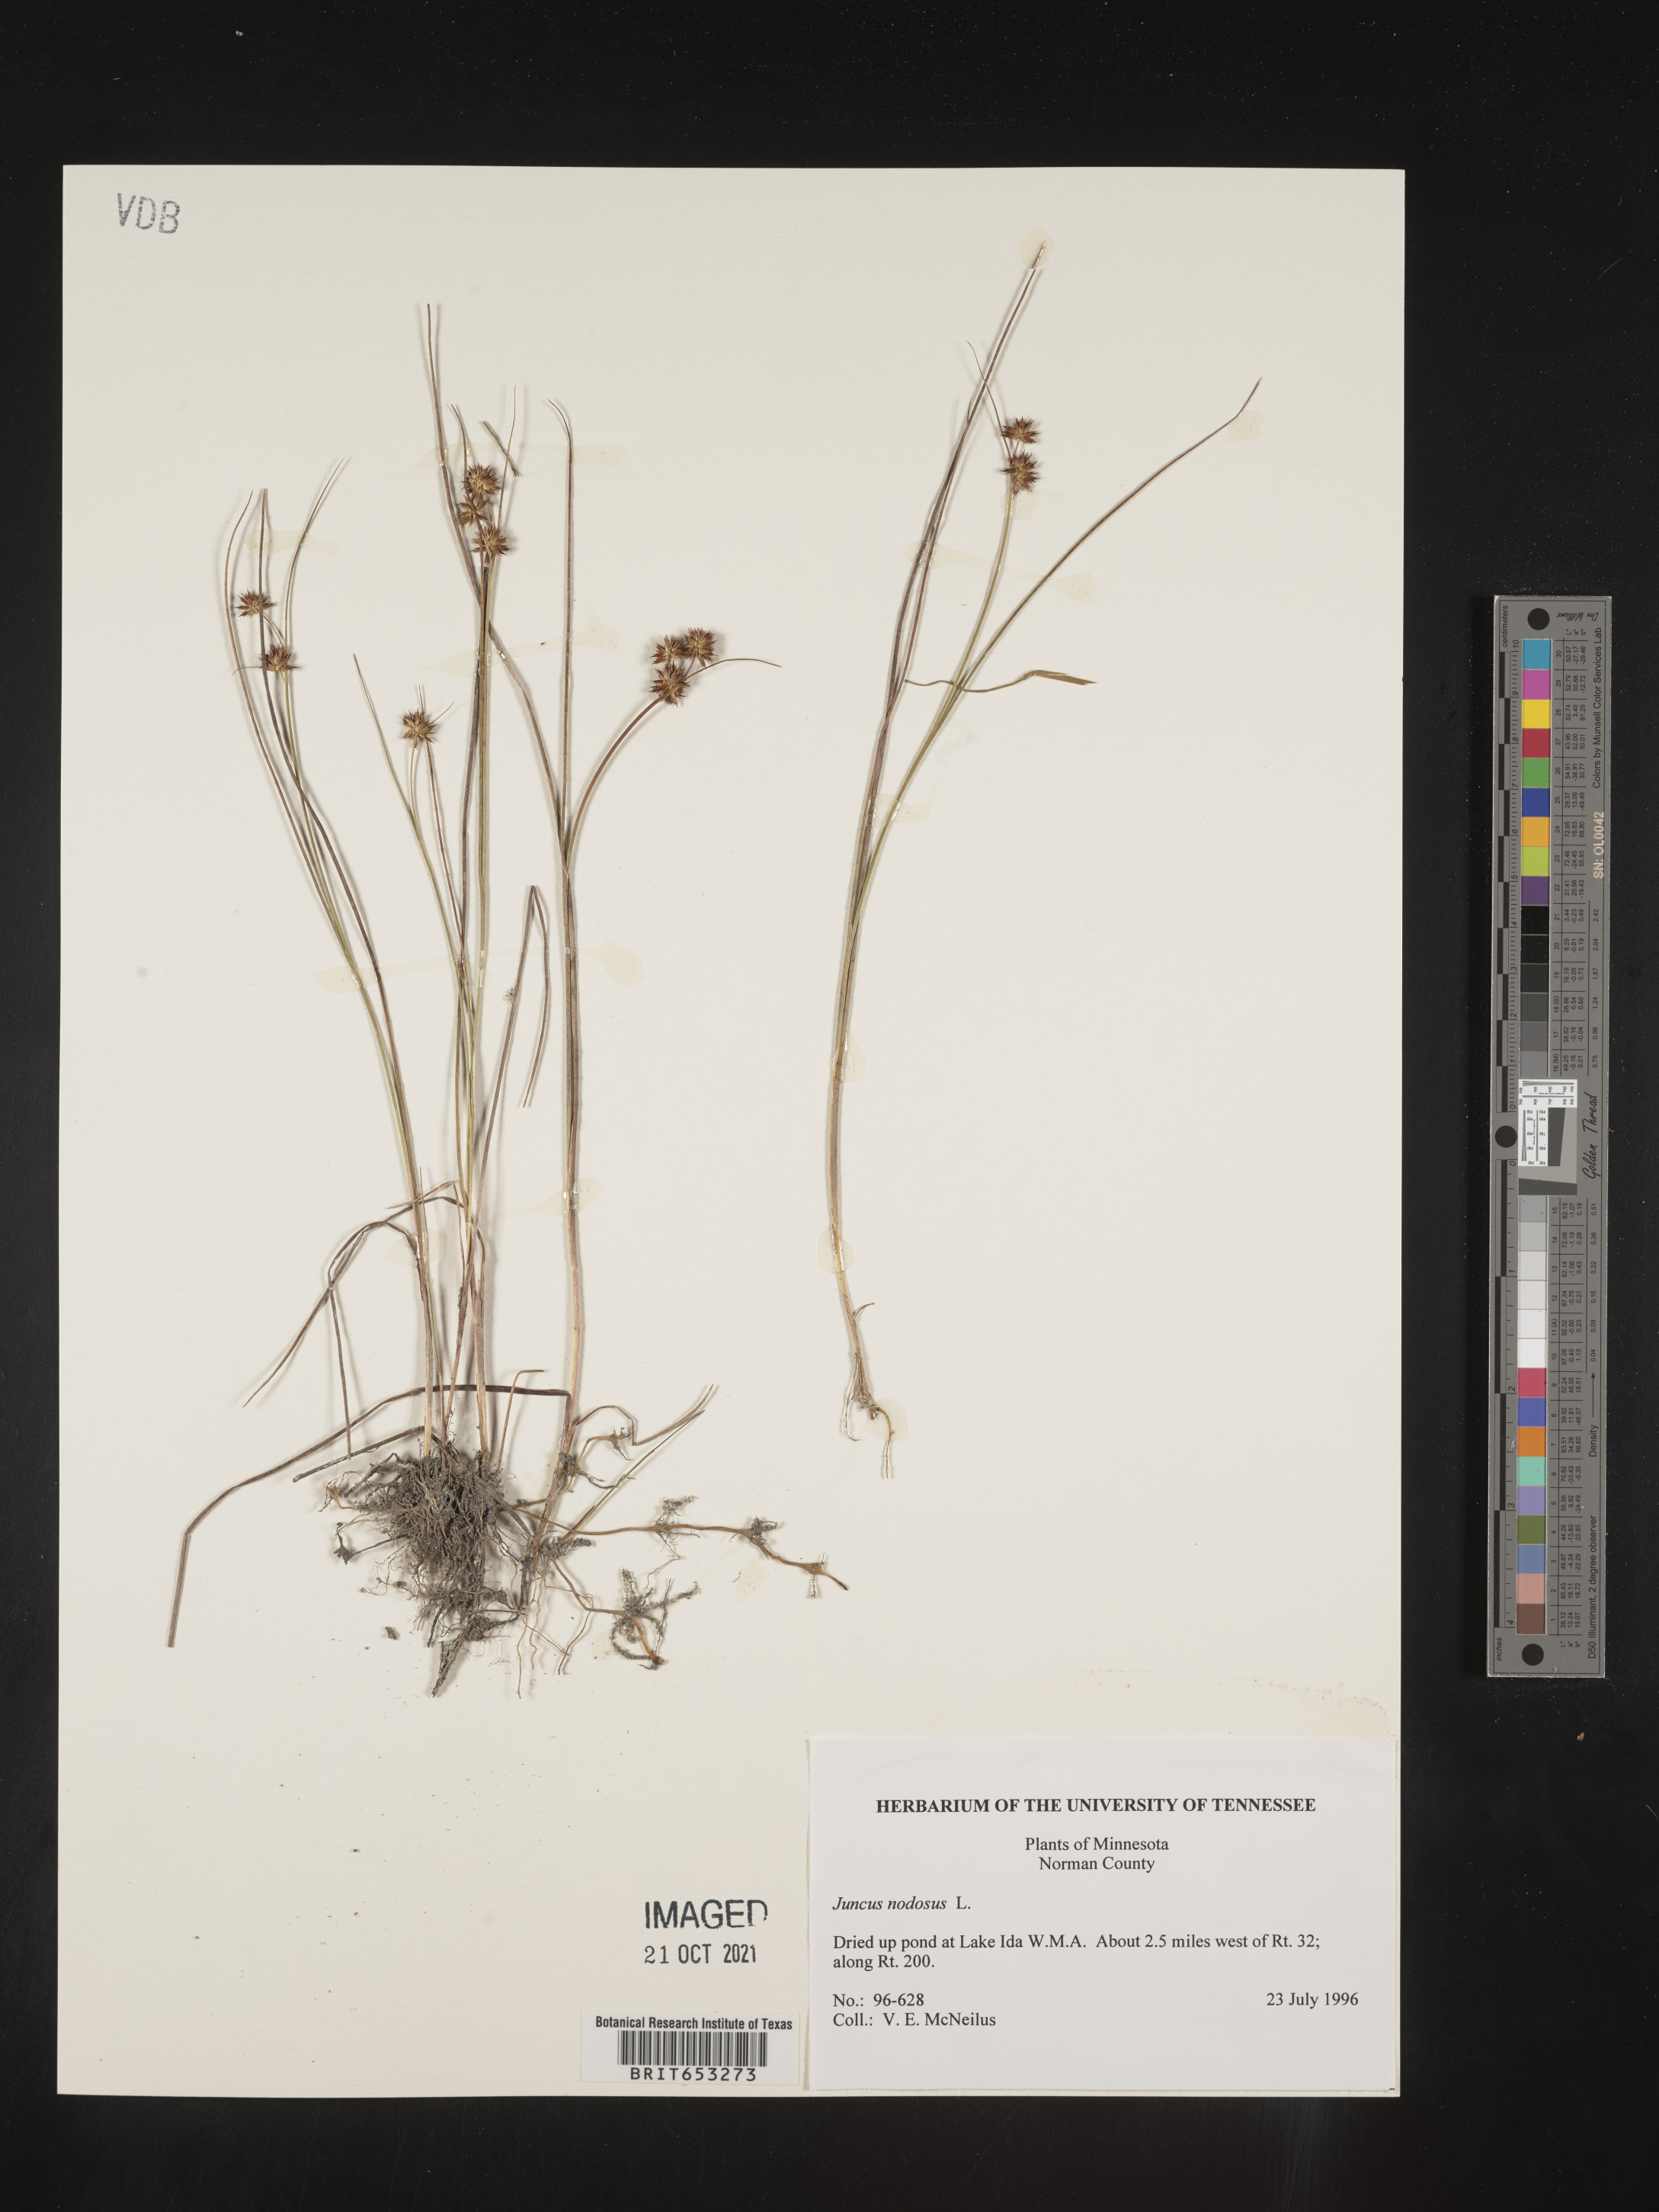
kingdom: Plantae
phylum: Tracheophyta
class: Liliopsida
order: Poales
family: Juncaceae
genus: Juncus
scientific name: Juncus nodosus
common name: Knotted rush
